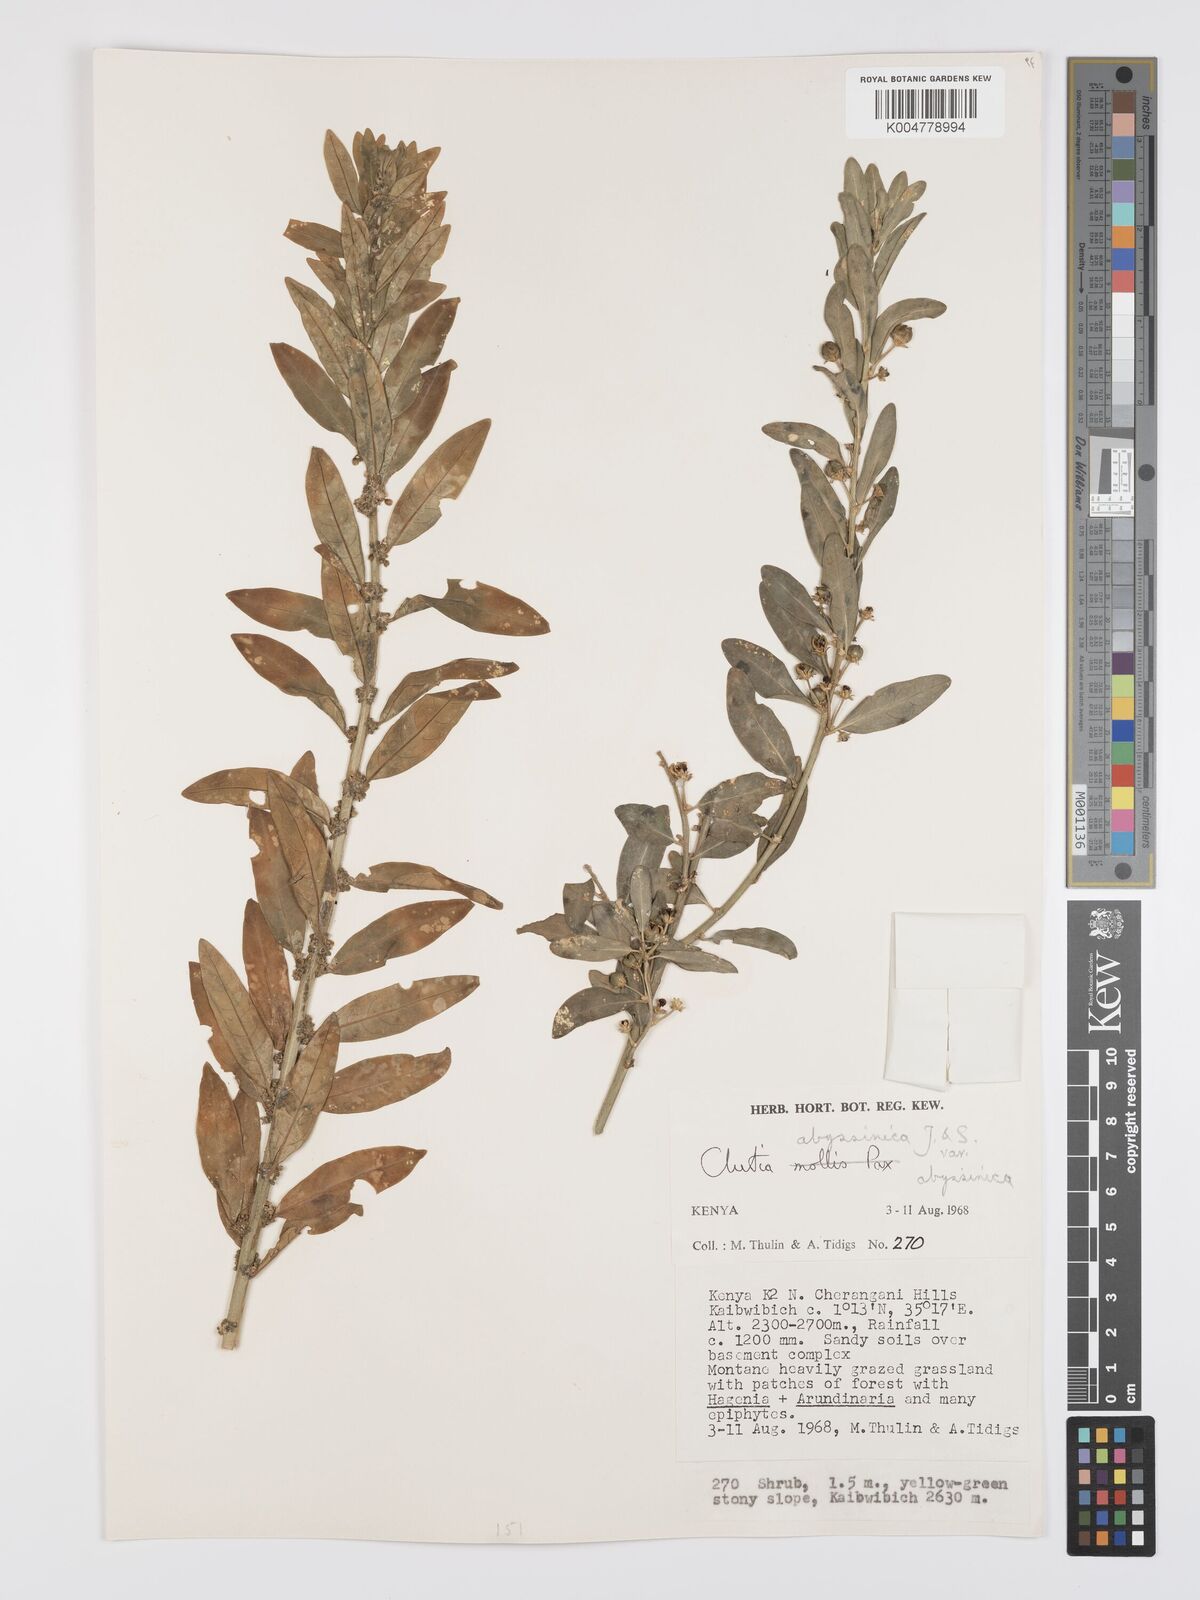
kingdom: Plantae
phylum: Tracheophyta
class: Magnoliopsida
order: Malpighiales
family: Peraceae
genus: Clutia
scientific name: Clutia abyssinica
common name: Large lightning bush
